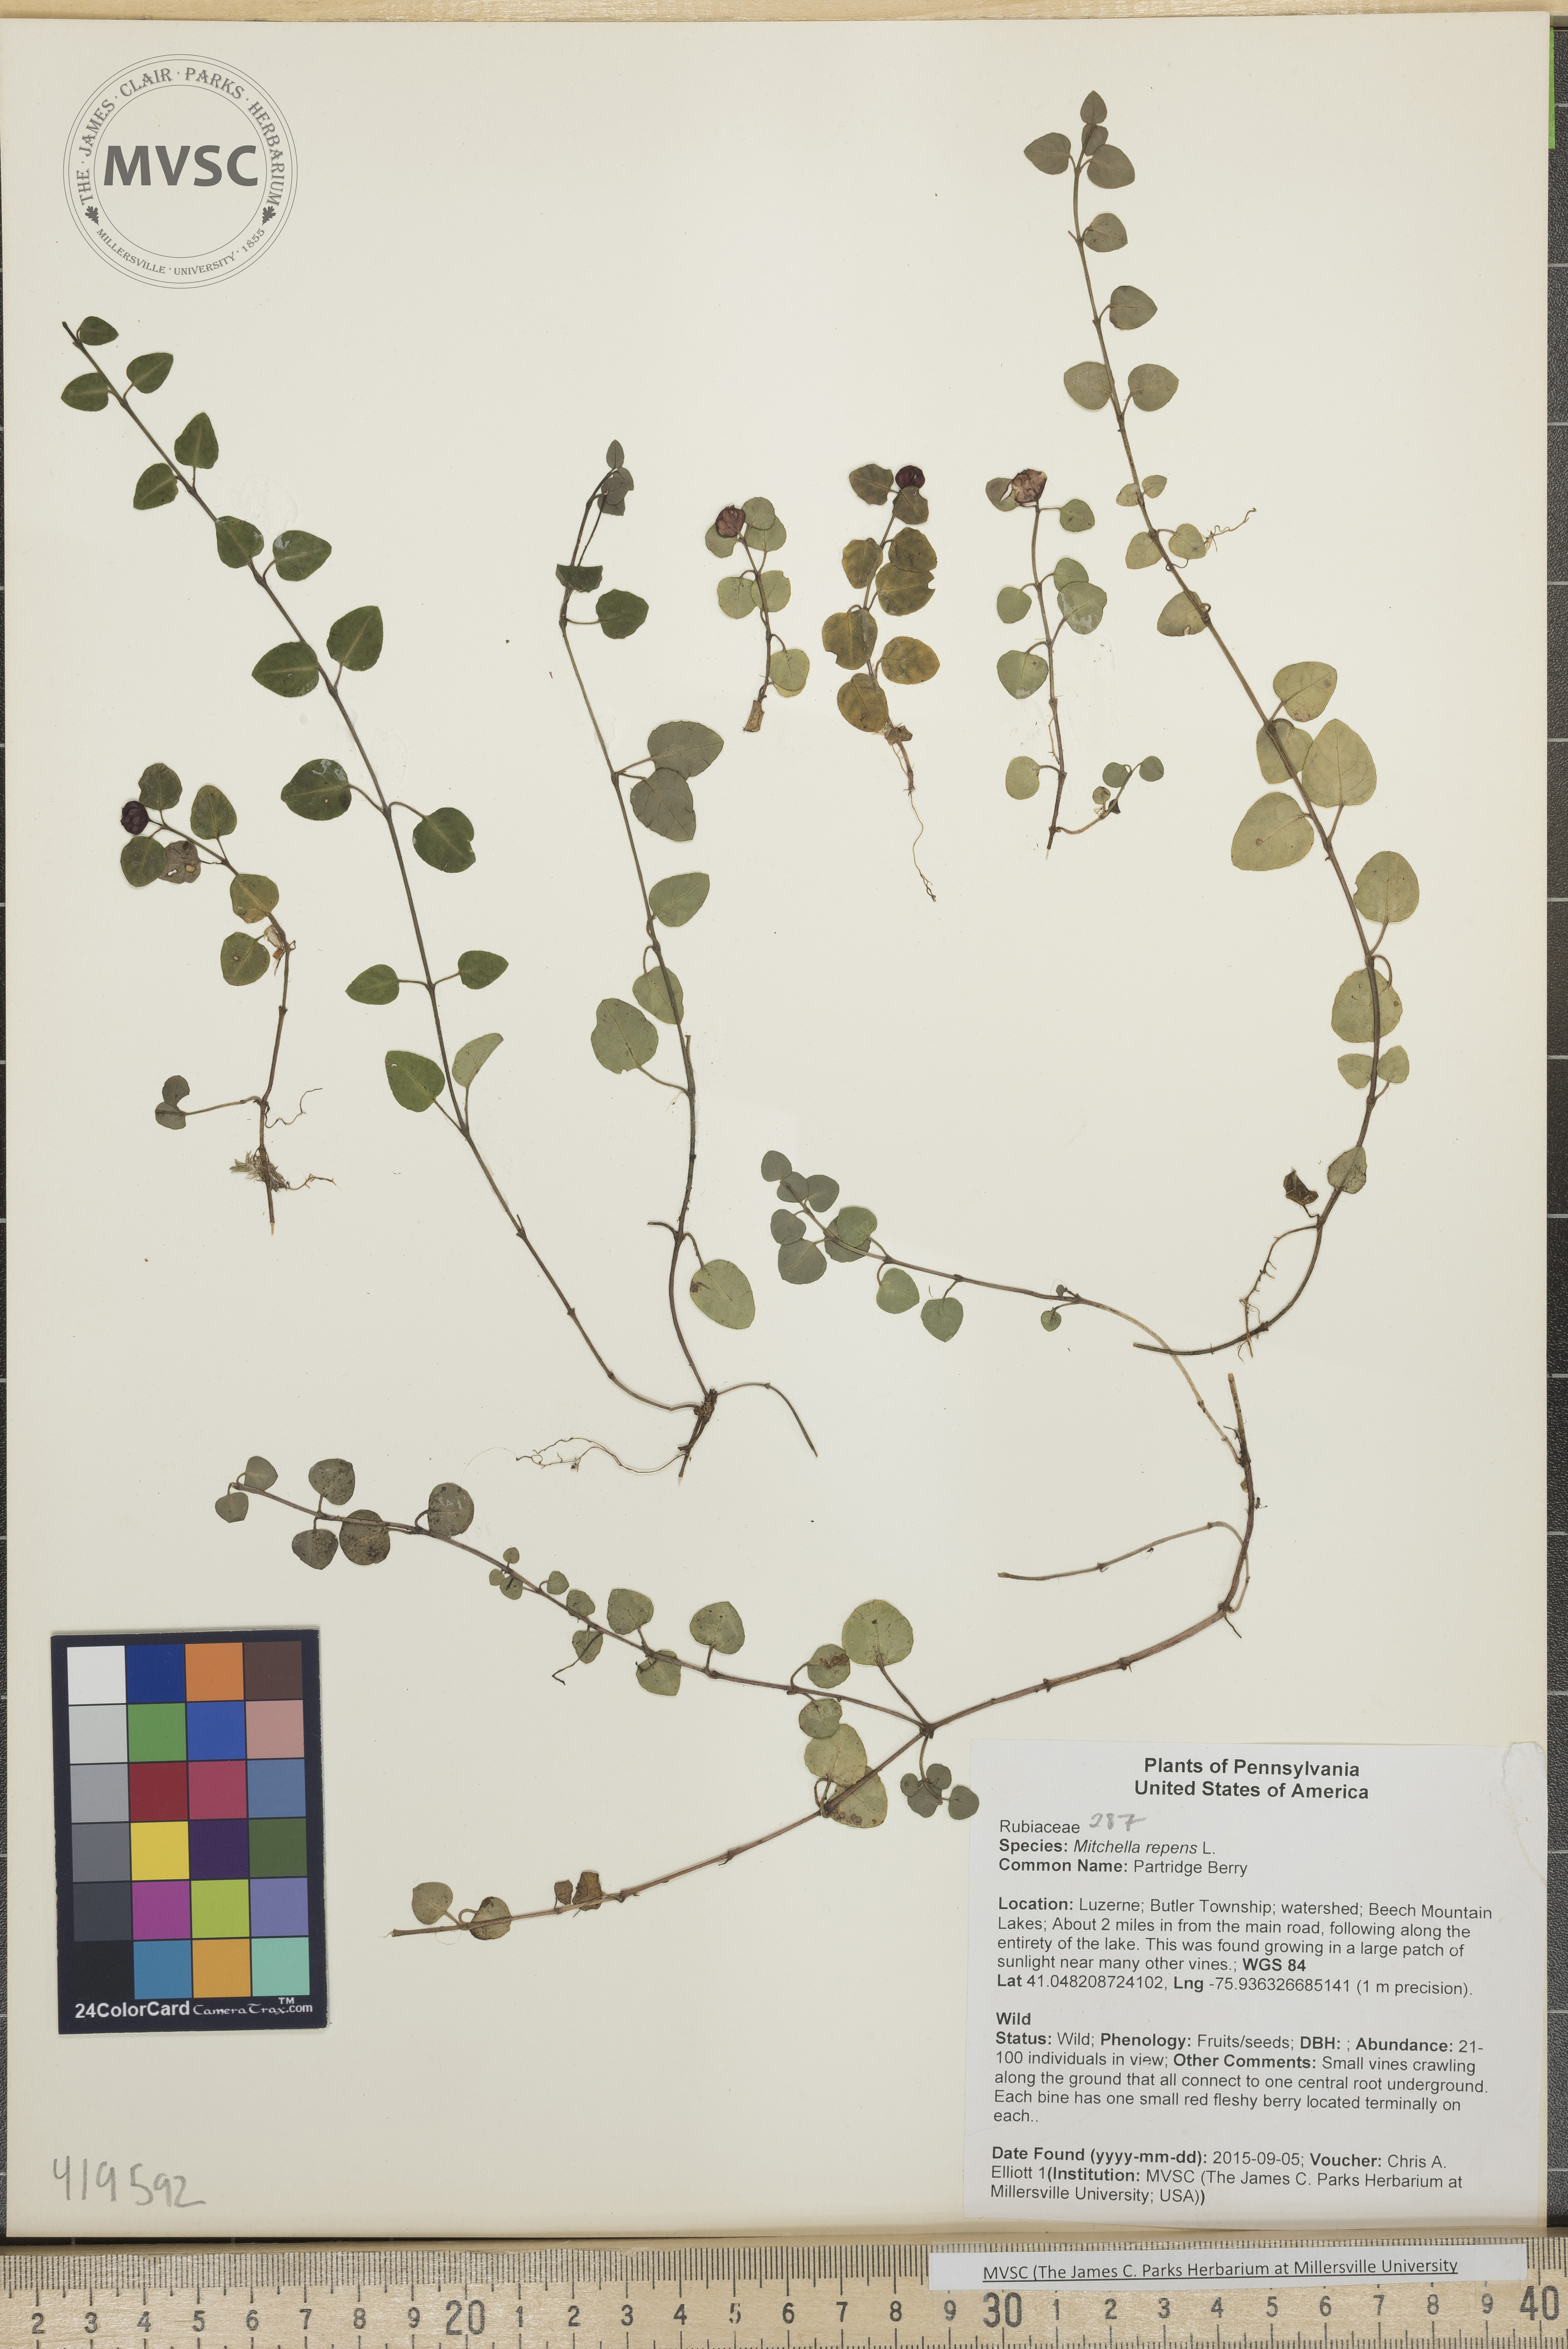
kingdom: Plantae
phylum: Tracheophyta
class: Magnoliopsida
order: Gentianales
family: Rubiaceae
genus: Mitchella
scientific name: Mitchella repens
